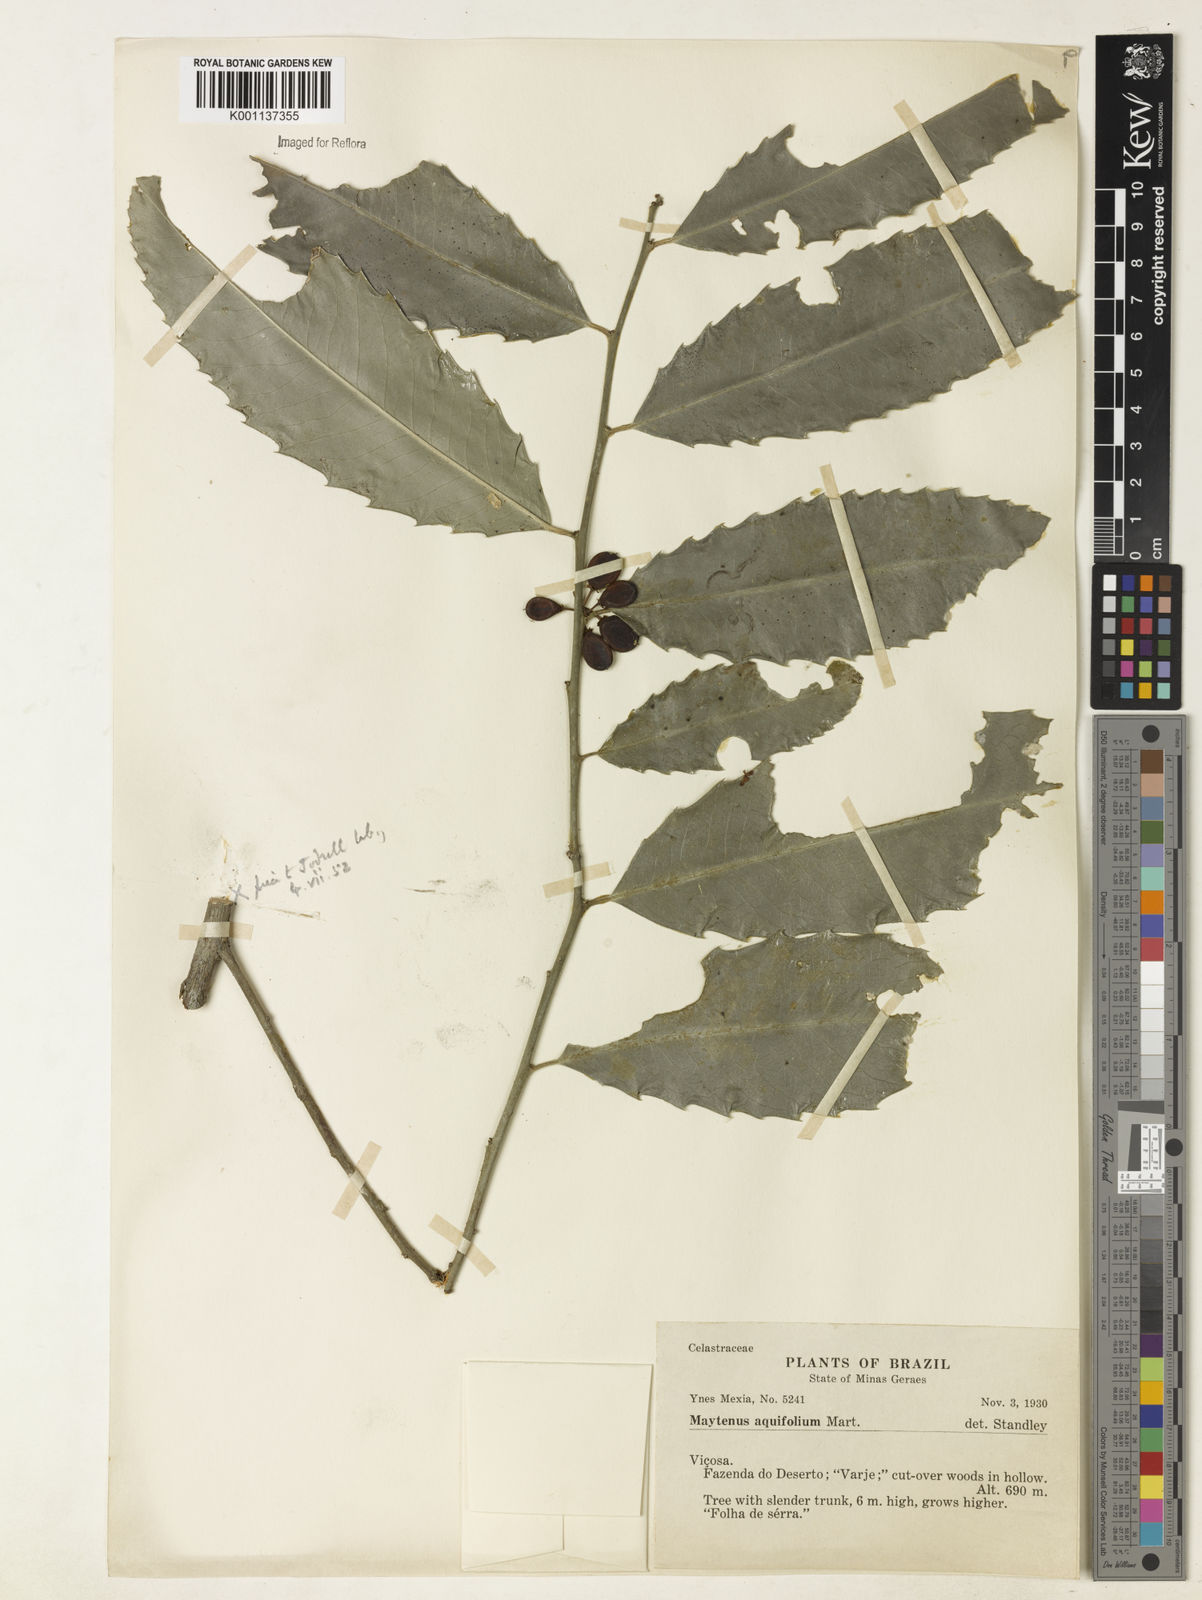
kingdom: Plantae
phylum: Tracheophyta
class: Magnoliopsida
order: Celastrales
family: Celastraceae
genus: Monteverdia
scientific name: Monteverdia aquifolium
